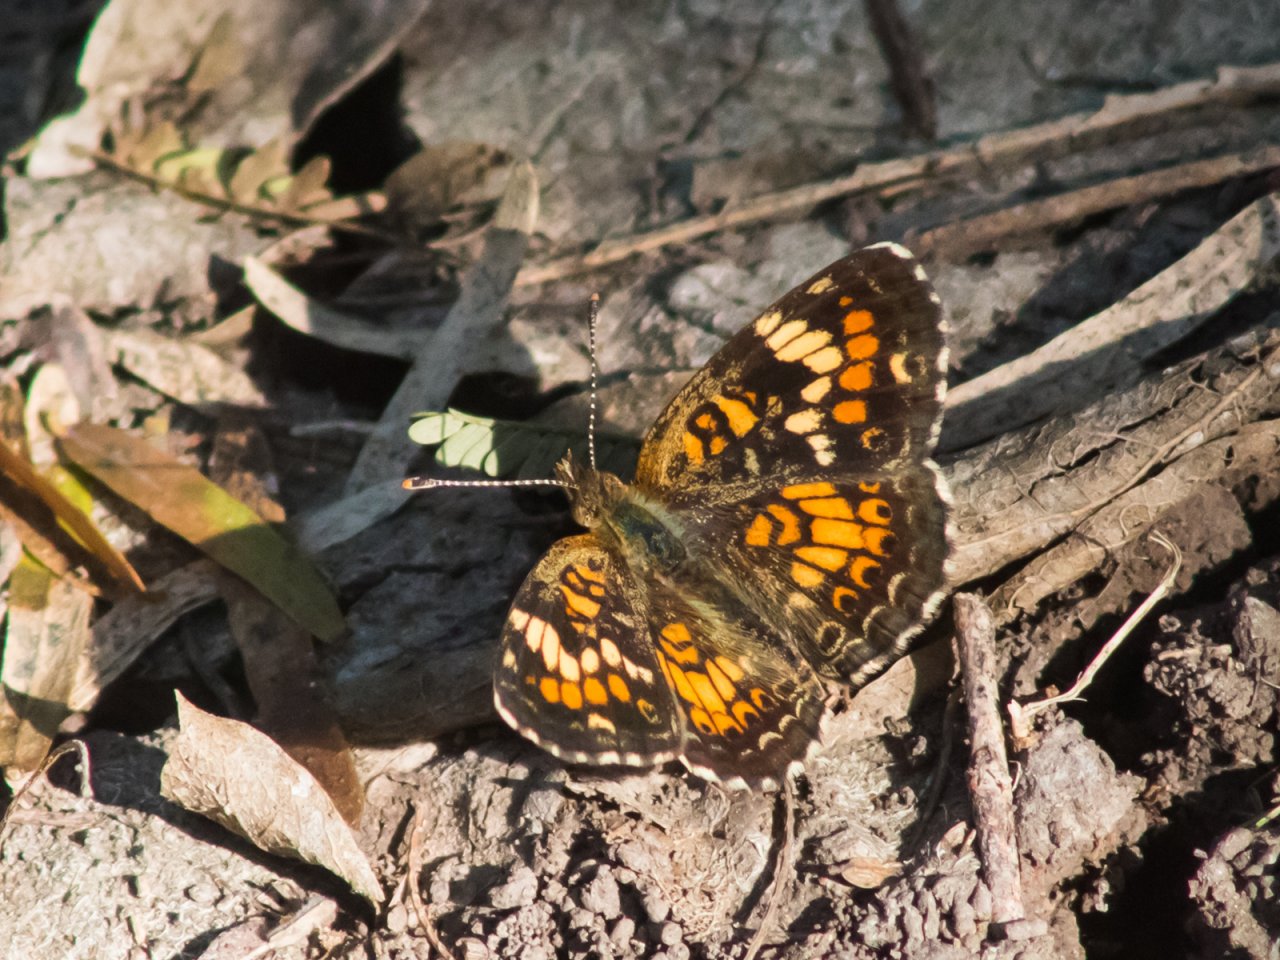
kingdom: Animalia
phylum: Arthropoda
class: Insecta
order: Lepidoptera
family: Nymphalidae
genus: Phyciodes
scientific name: Phyciodes phaon
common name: Phaon Crescent
